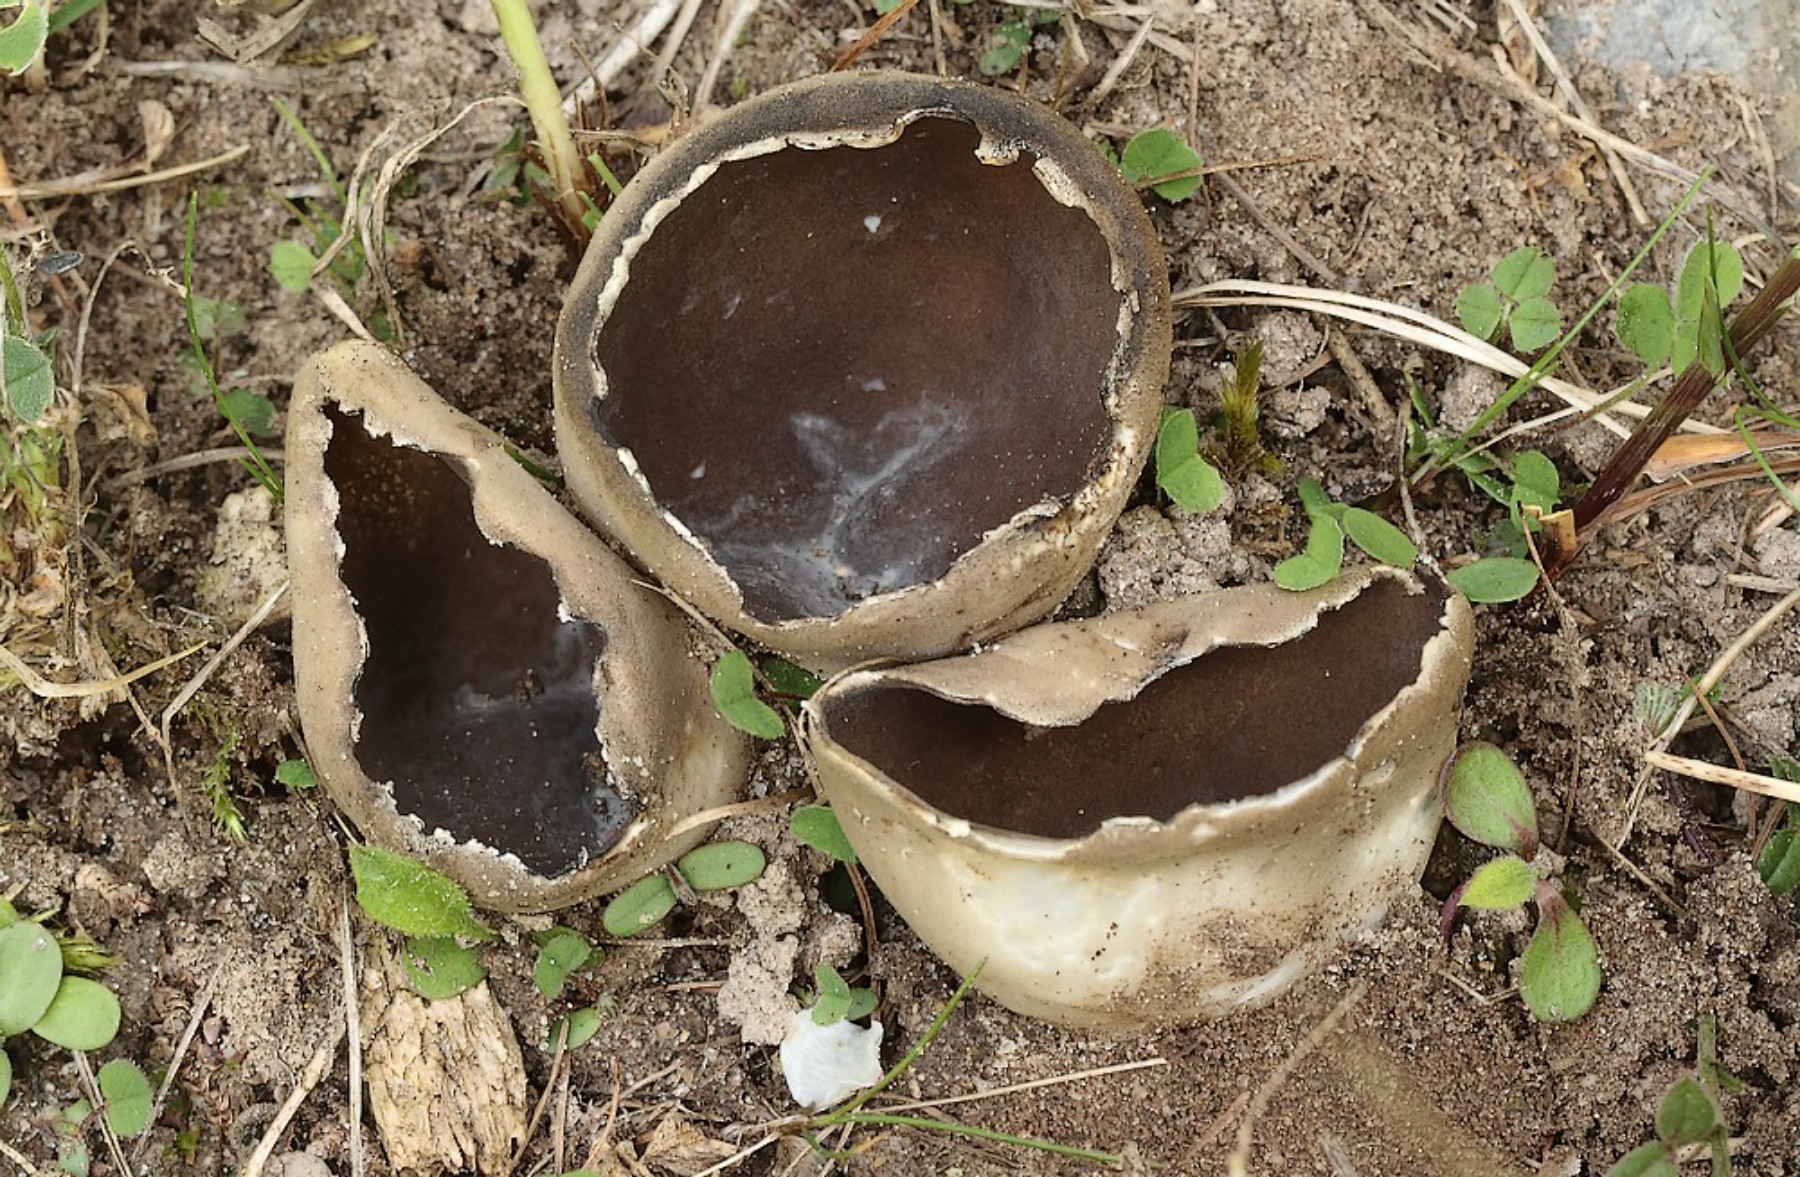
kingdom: Fungi
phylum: Ascomycota
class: Pezizomycetes
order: Pezizales
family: Helvellaceae
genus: Dissingia
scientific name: Dissingia leucomelaena
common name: sorthvid foldhat
